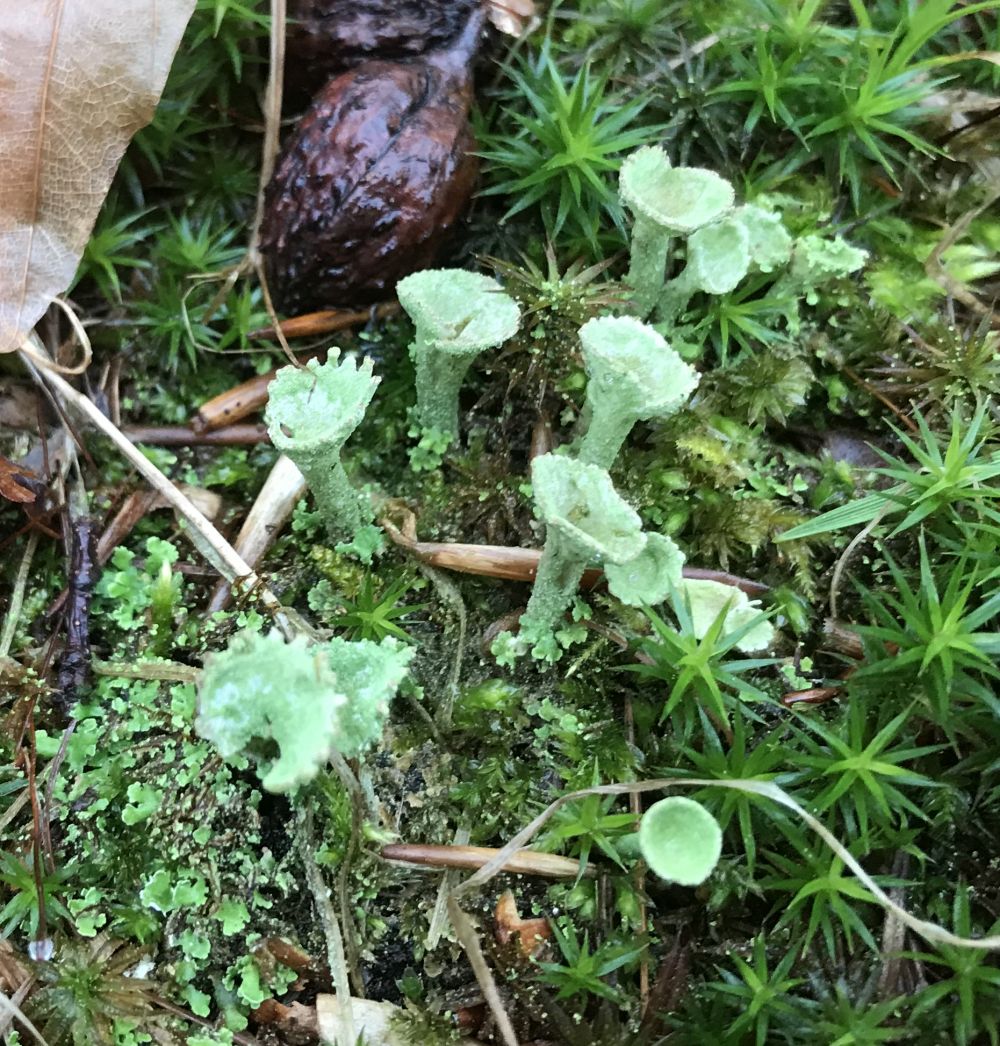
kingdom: Fungi
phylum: Ascomycota
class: Lecanoromycetes
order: Lecanorales
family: Cladoniaceae
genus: Cladonia
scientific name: Cladonia fimbriata
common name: bleggrøn bægerlav
